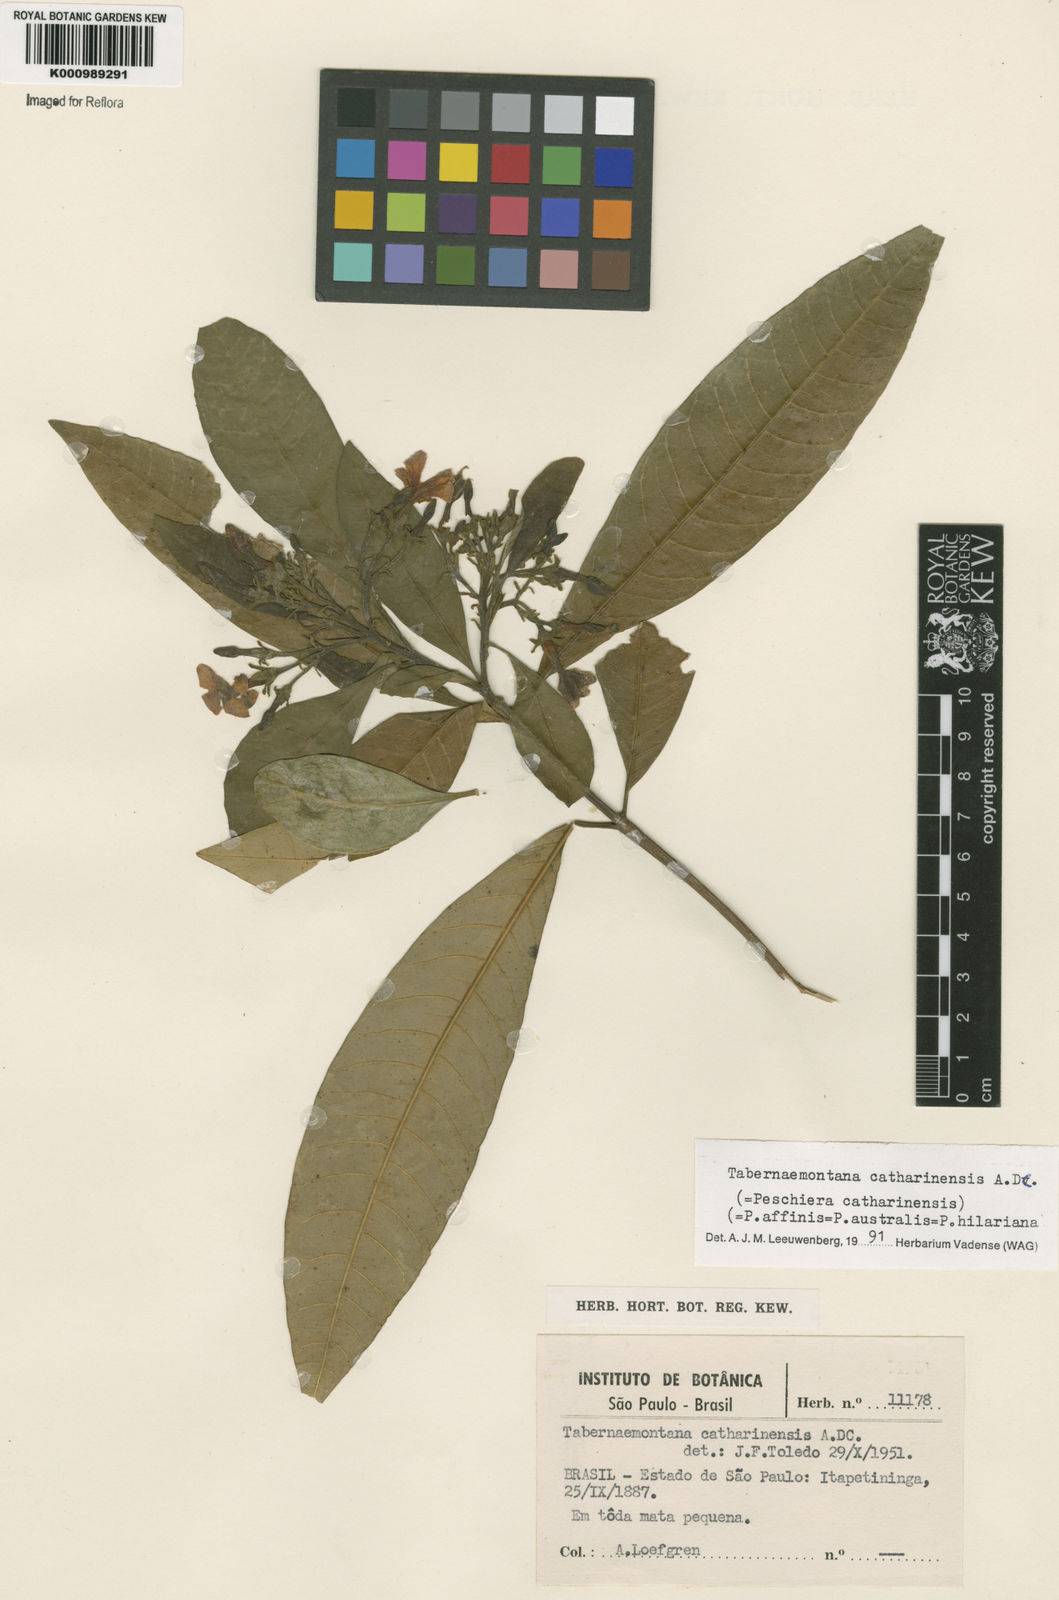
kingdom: Plantae
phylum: Tracheophyta
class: Magnoliopsida
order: Gentianales
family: Apocynaceae
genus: Tabernaemontana
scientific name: Tabernaemontana catharinensis
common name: Pinwheel-flower
